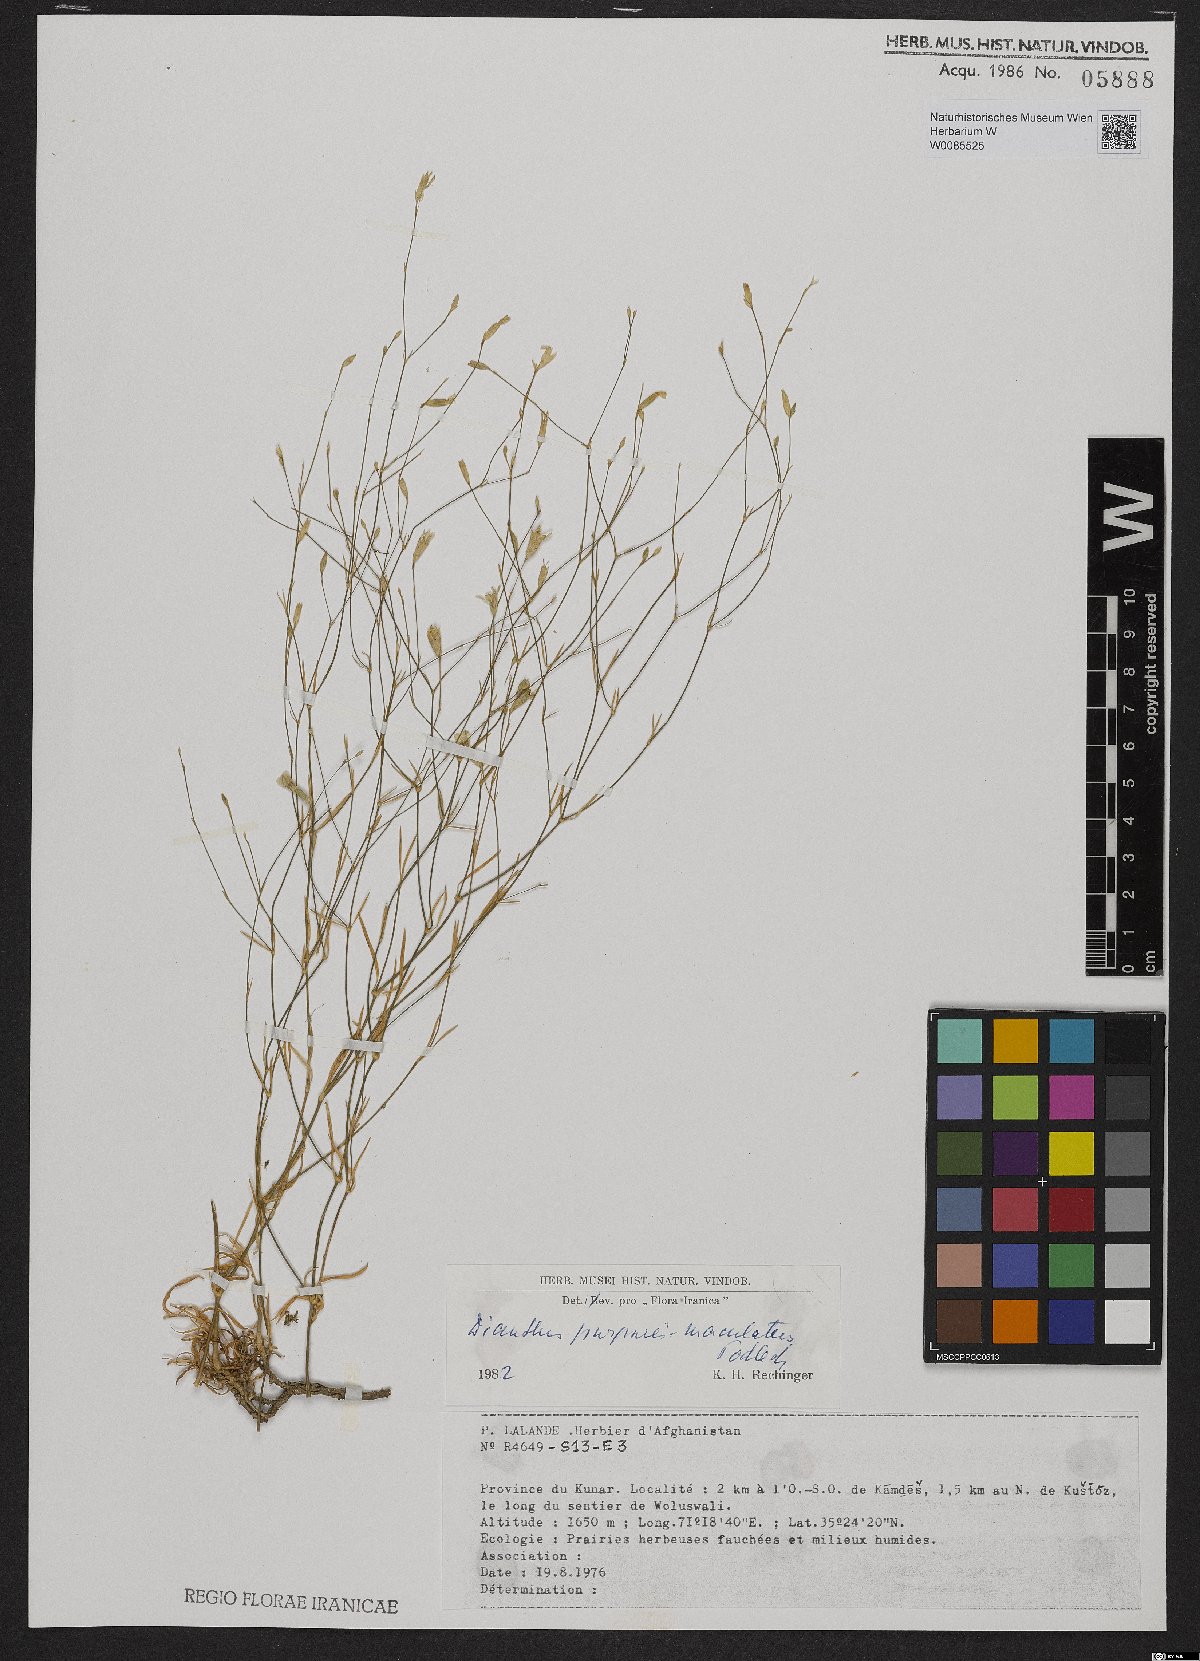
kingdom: Plantae
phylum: Tracheophyta
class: Magnoliopsida
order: Caryophyllales
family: Caryophyllaceae
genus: Dianthus
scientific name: Dianthus purpureimaculatus
